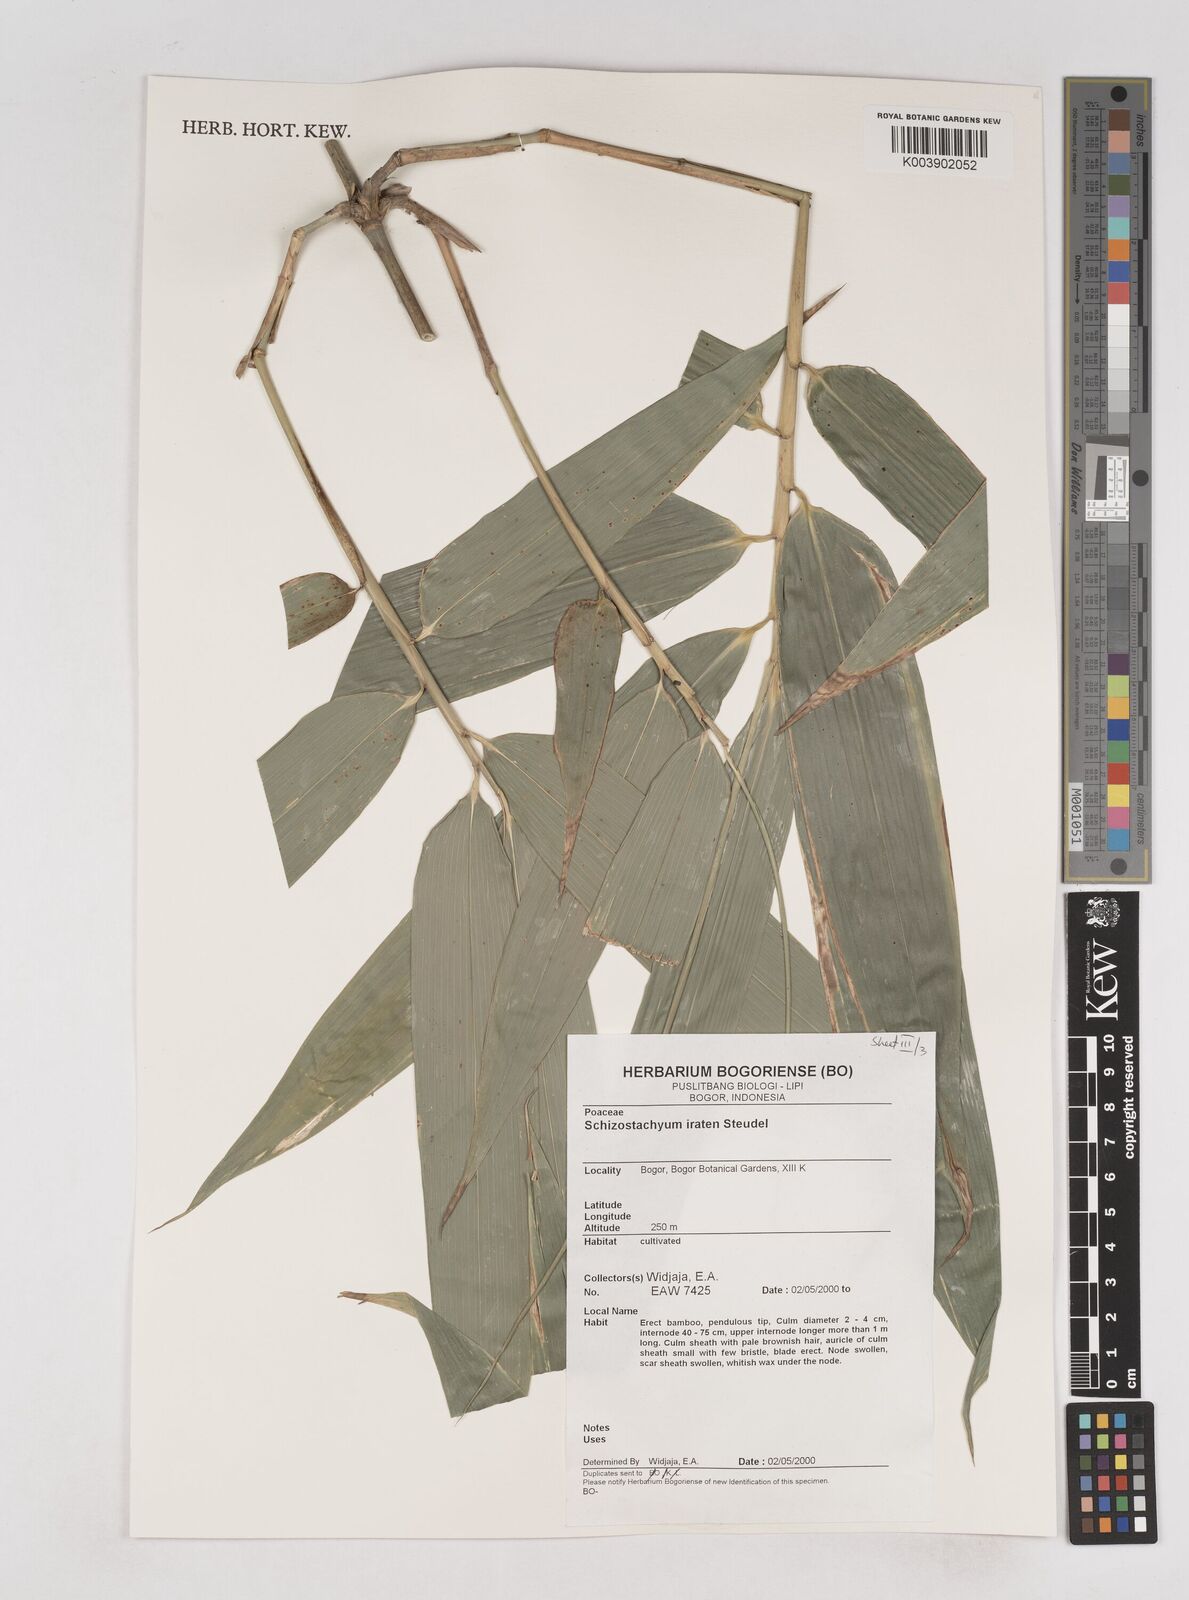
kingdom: Plantae
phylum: Tracheophyta
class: Liliopsida
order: Poales
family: Poaceae
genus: Schizostachyum
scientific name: Schizostachyum iraten
